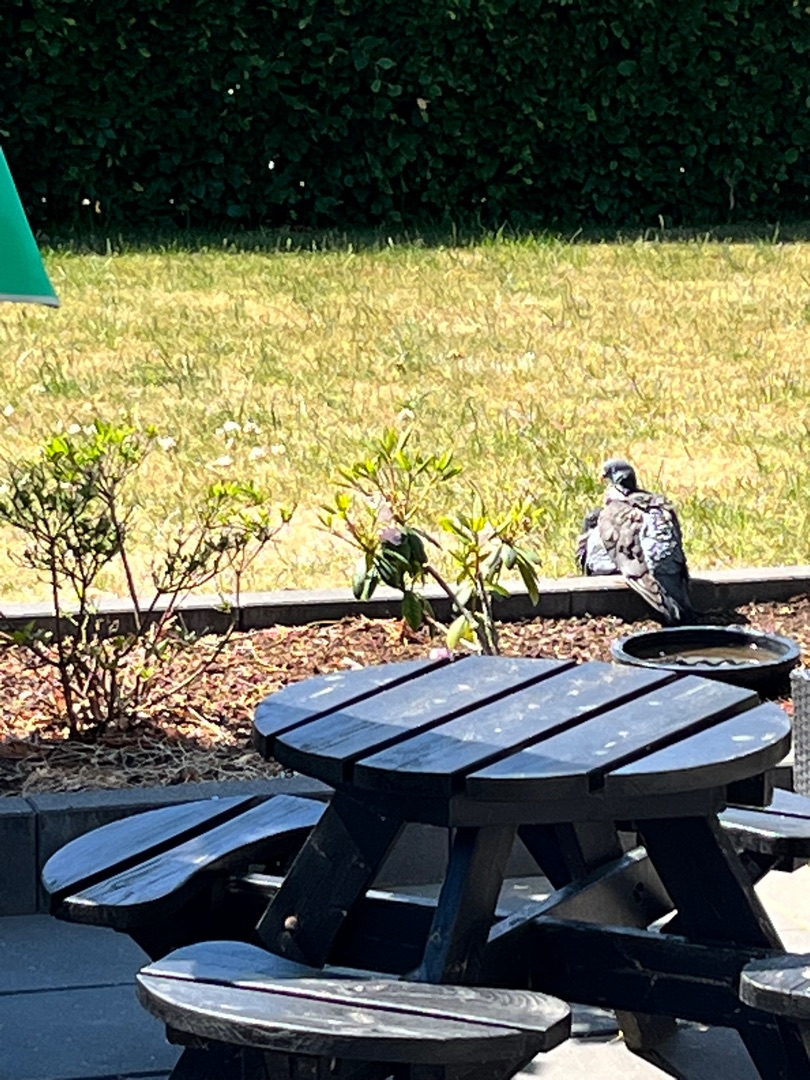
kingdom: Animalia
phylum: Chordata
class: Aves
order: Columbiformes
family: Columbidae
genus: Columba
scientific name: Columba palumbus
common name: Ringdue
